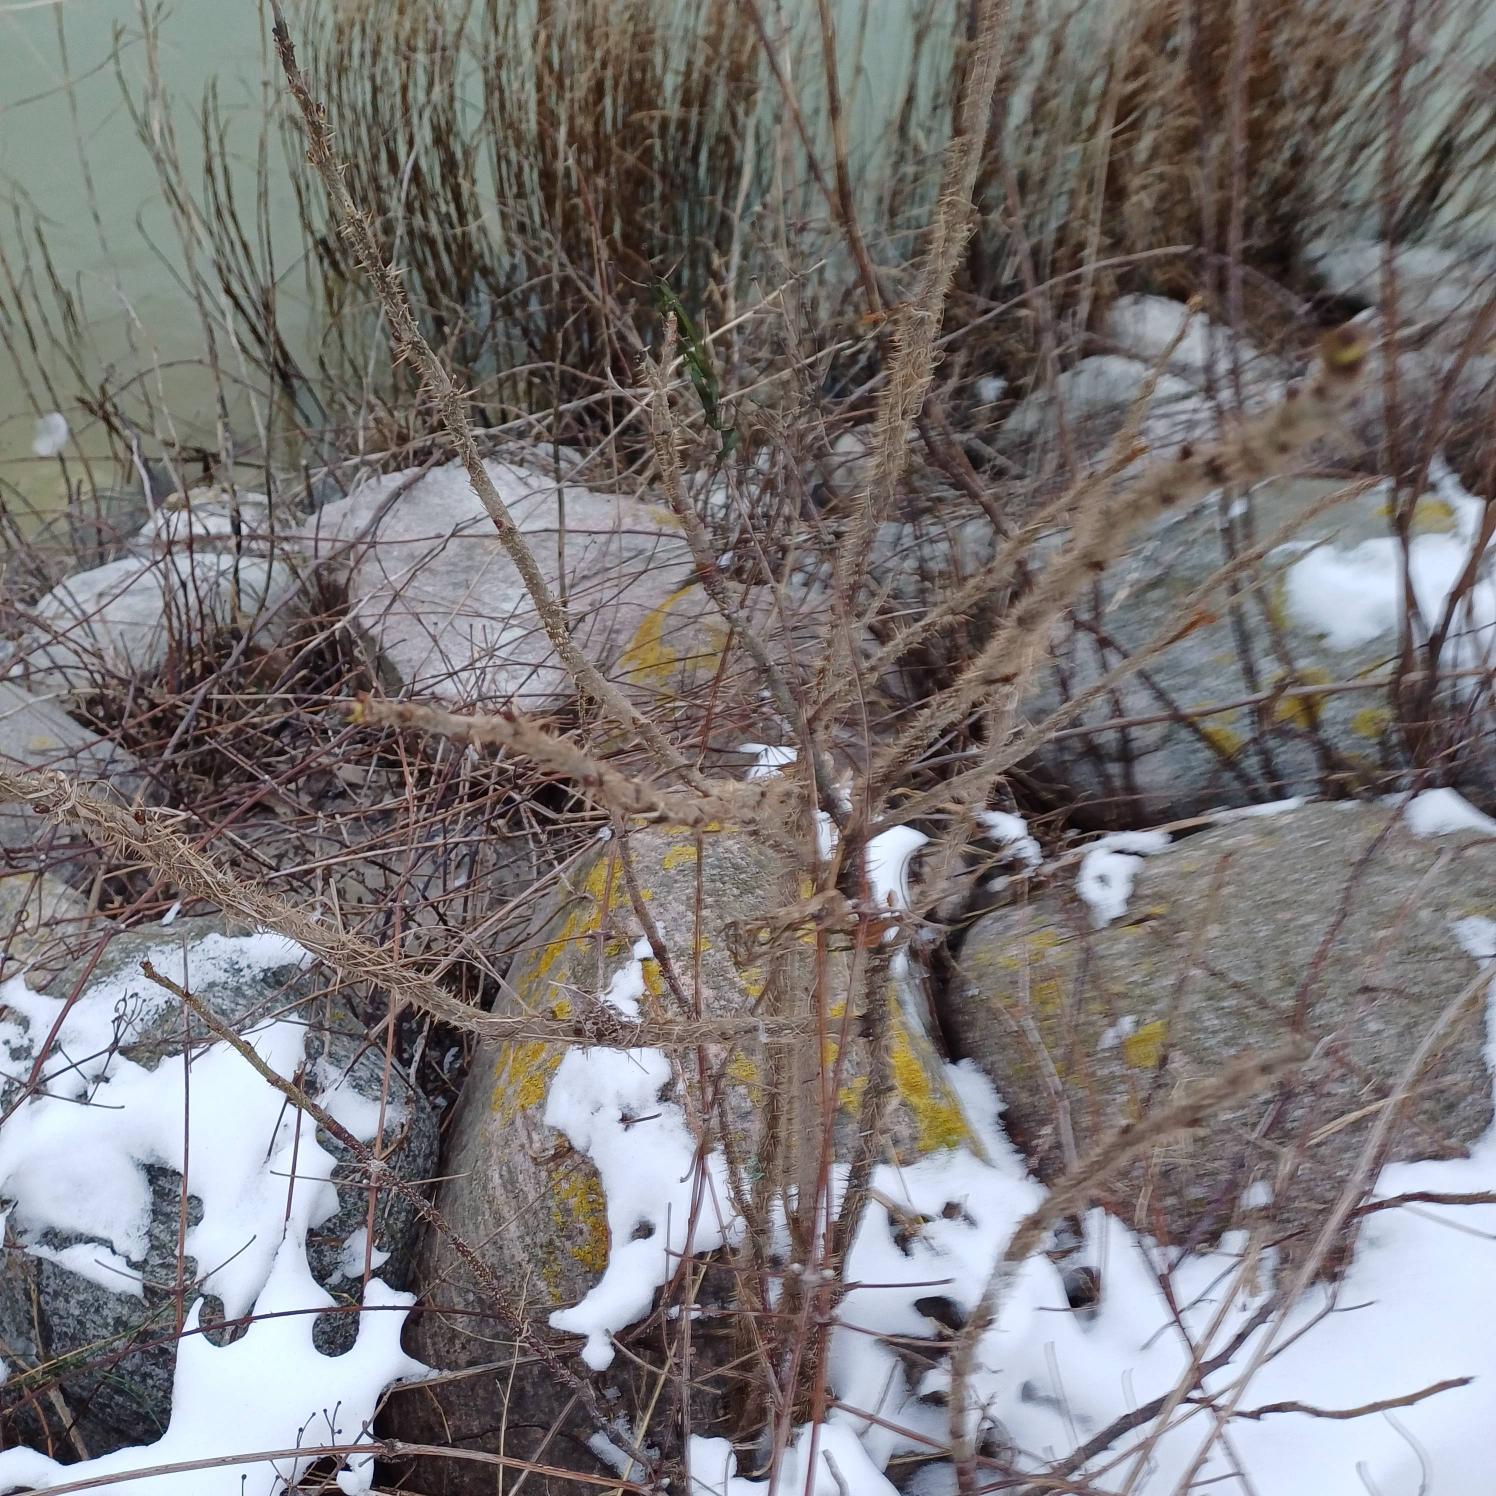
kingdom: Plantae
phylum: Tracheophyta
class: Magnoliopsida
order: Rosales
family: Rosaceae
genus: Rosa
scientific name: Rosa rugosa
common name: Rynket rose
